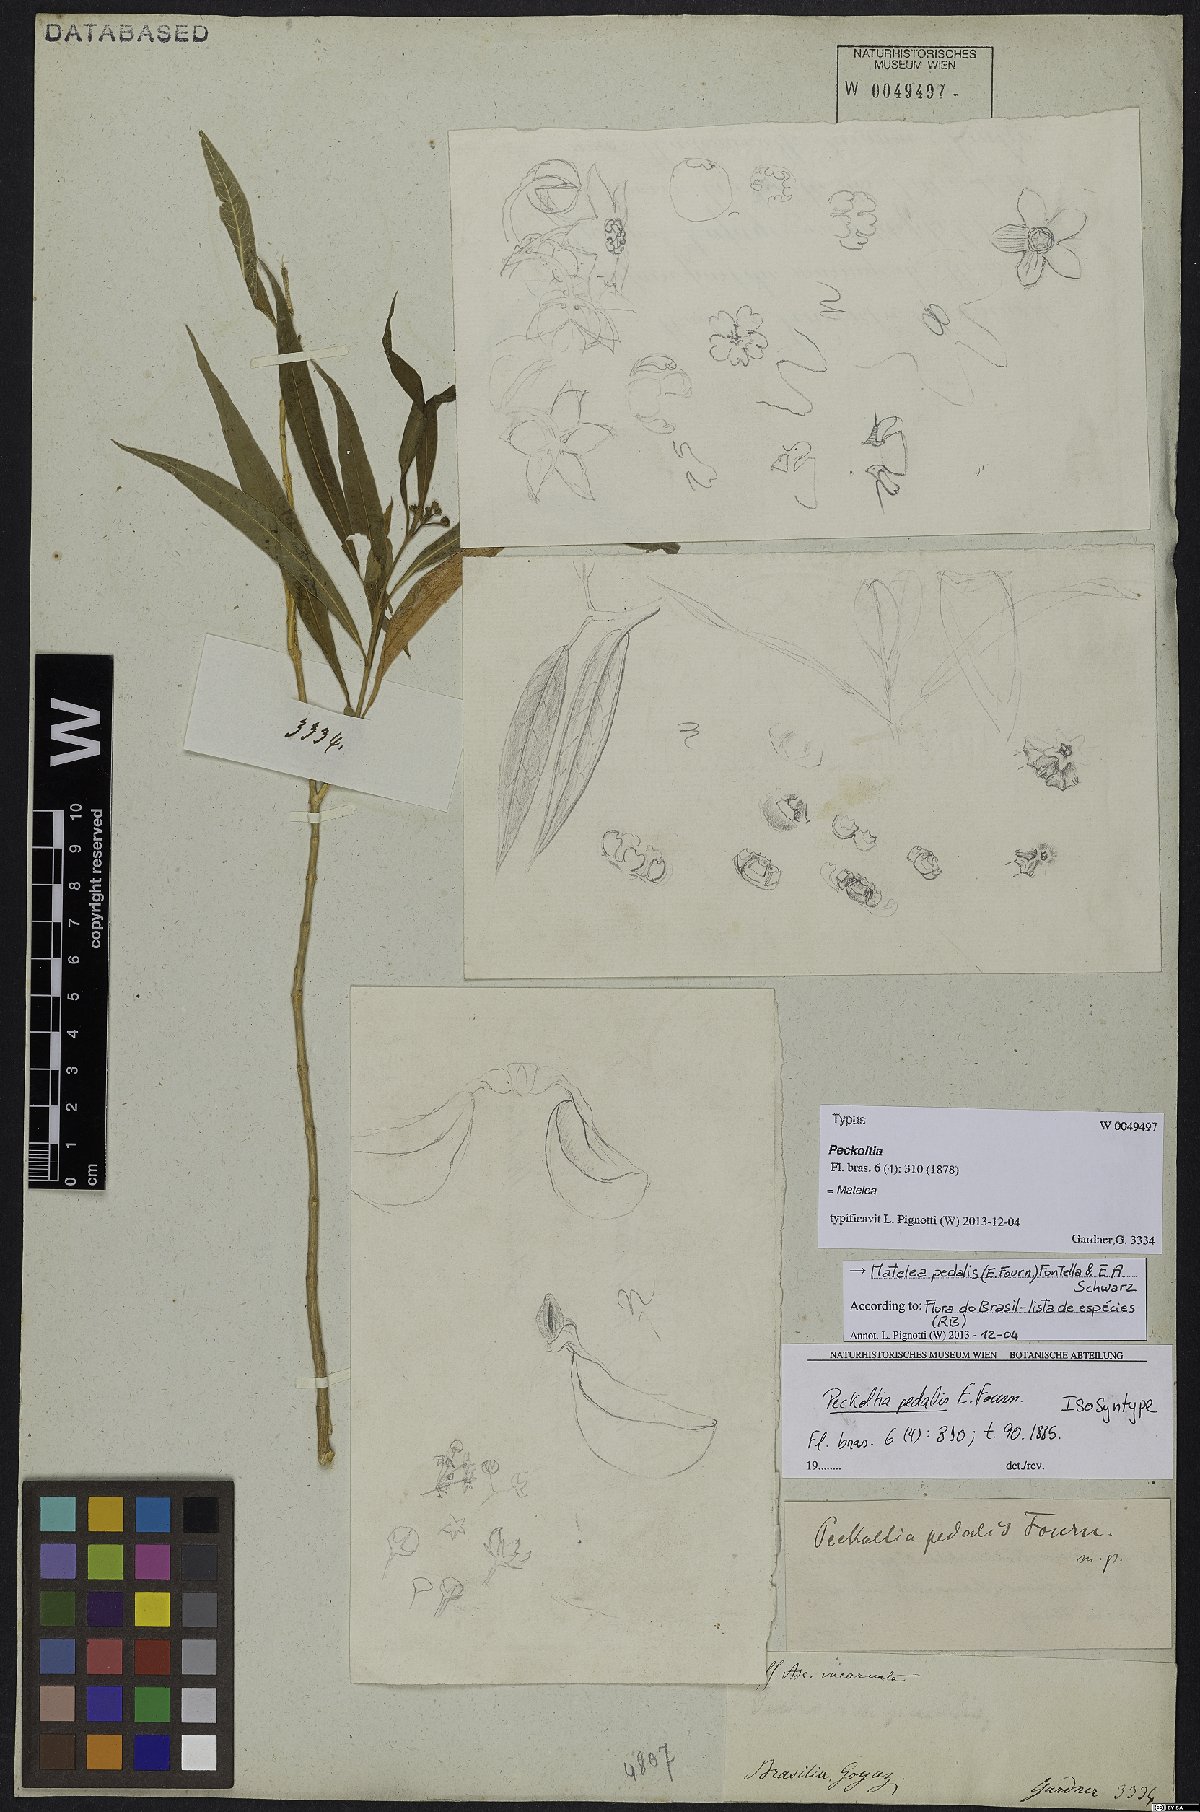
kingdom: Plantae
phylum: Tracheophyta
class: Magnoliopsida
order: Gentianales
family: Apocynaceae
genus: Matelea
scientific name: Matelea pedalis
